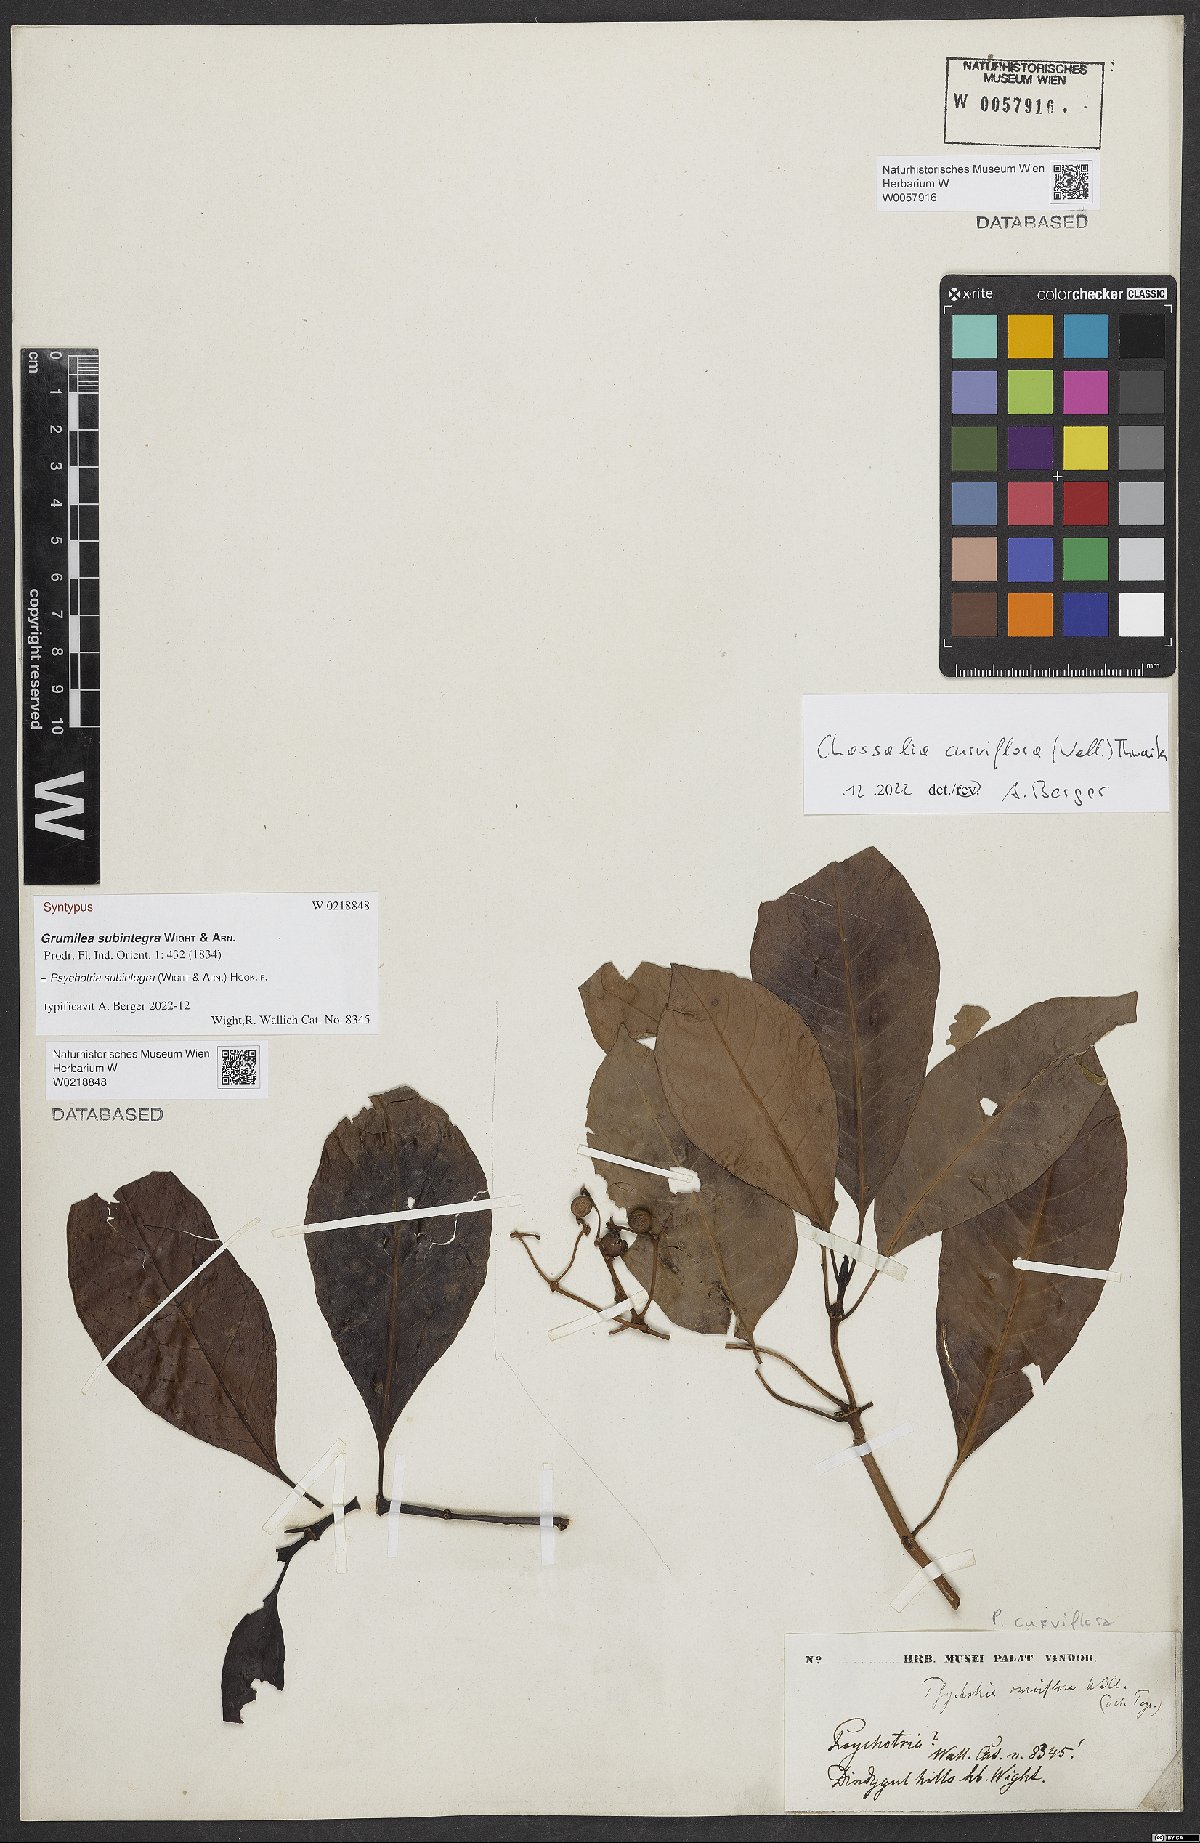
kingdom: Plantae
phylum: Tracheophyta
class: Magnoliopsida
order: Gentianales
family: Rubiaceae
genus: Chassalia
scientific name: Chassalia curviflora
